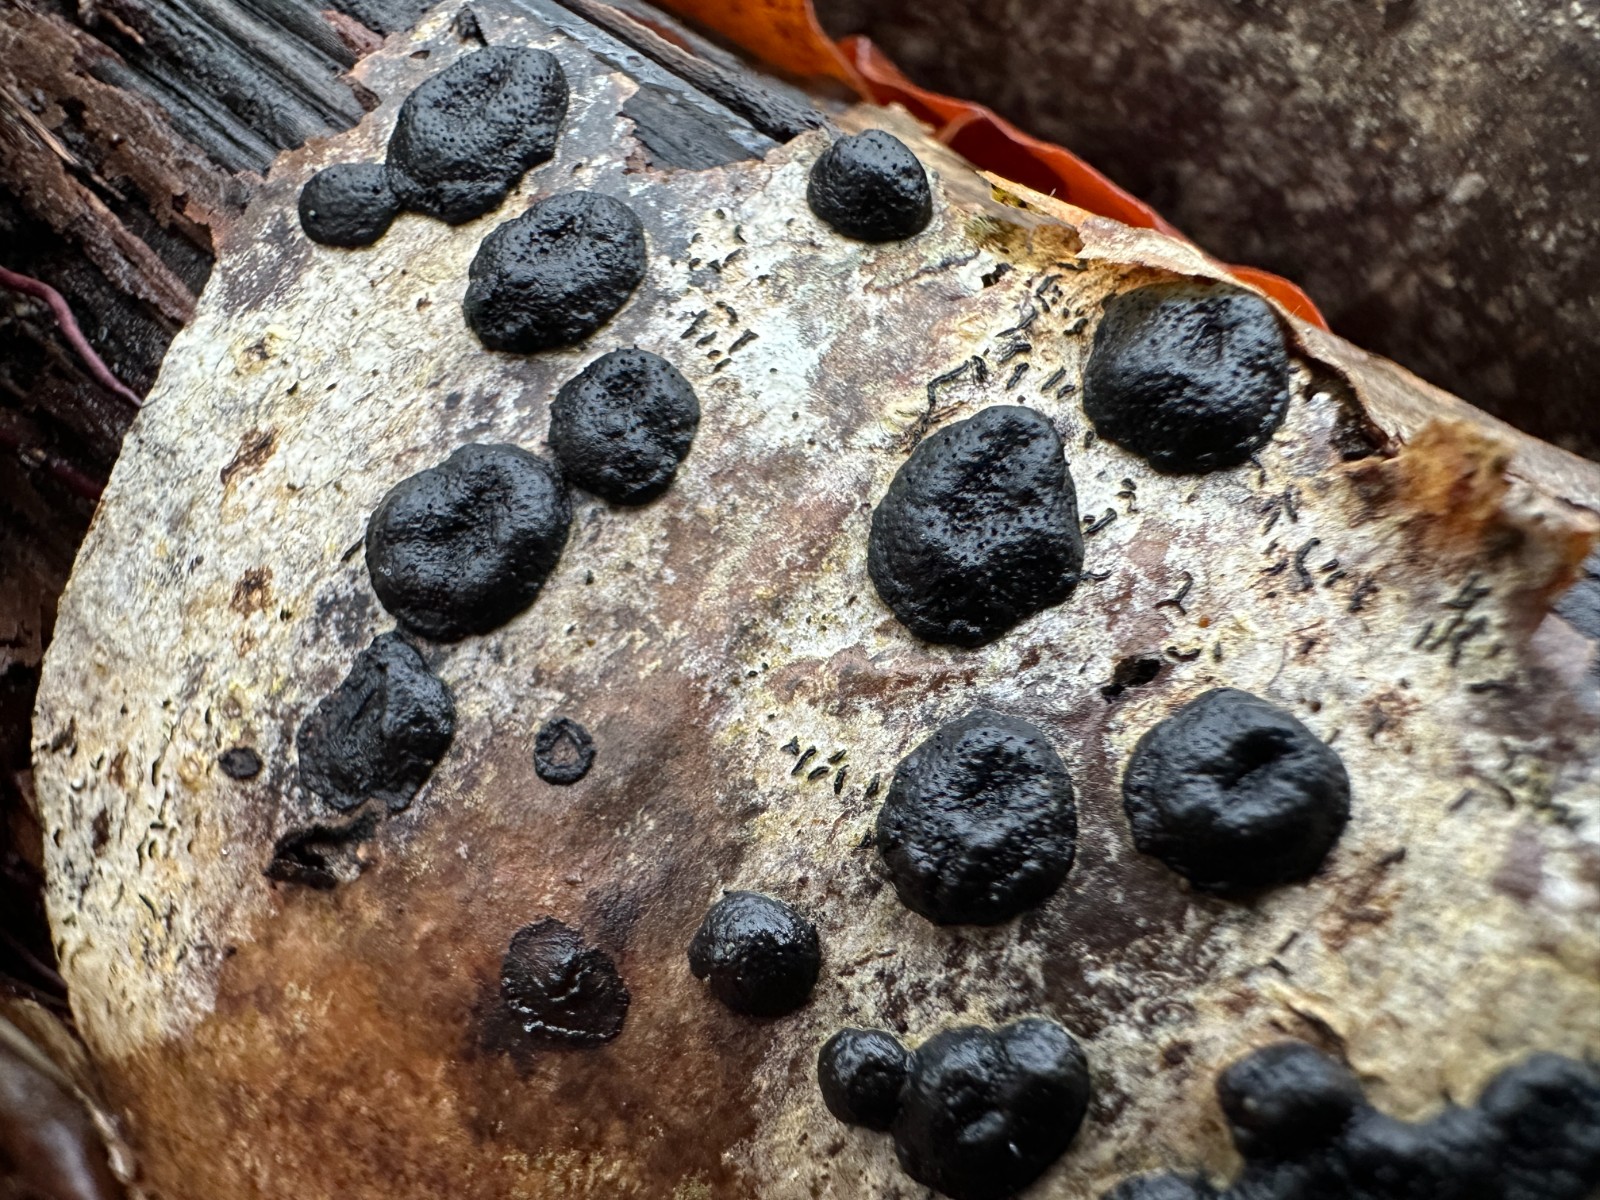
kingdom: Fungi
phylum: Ascomycota
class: Sordariomycetes
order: Xylariales
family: Hypoxylaceae
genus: Hypoxylon
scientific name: Hypoxylon fuscum
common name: kegleformet kulbær
